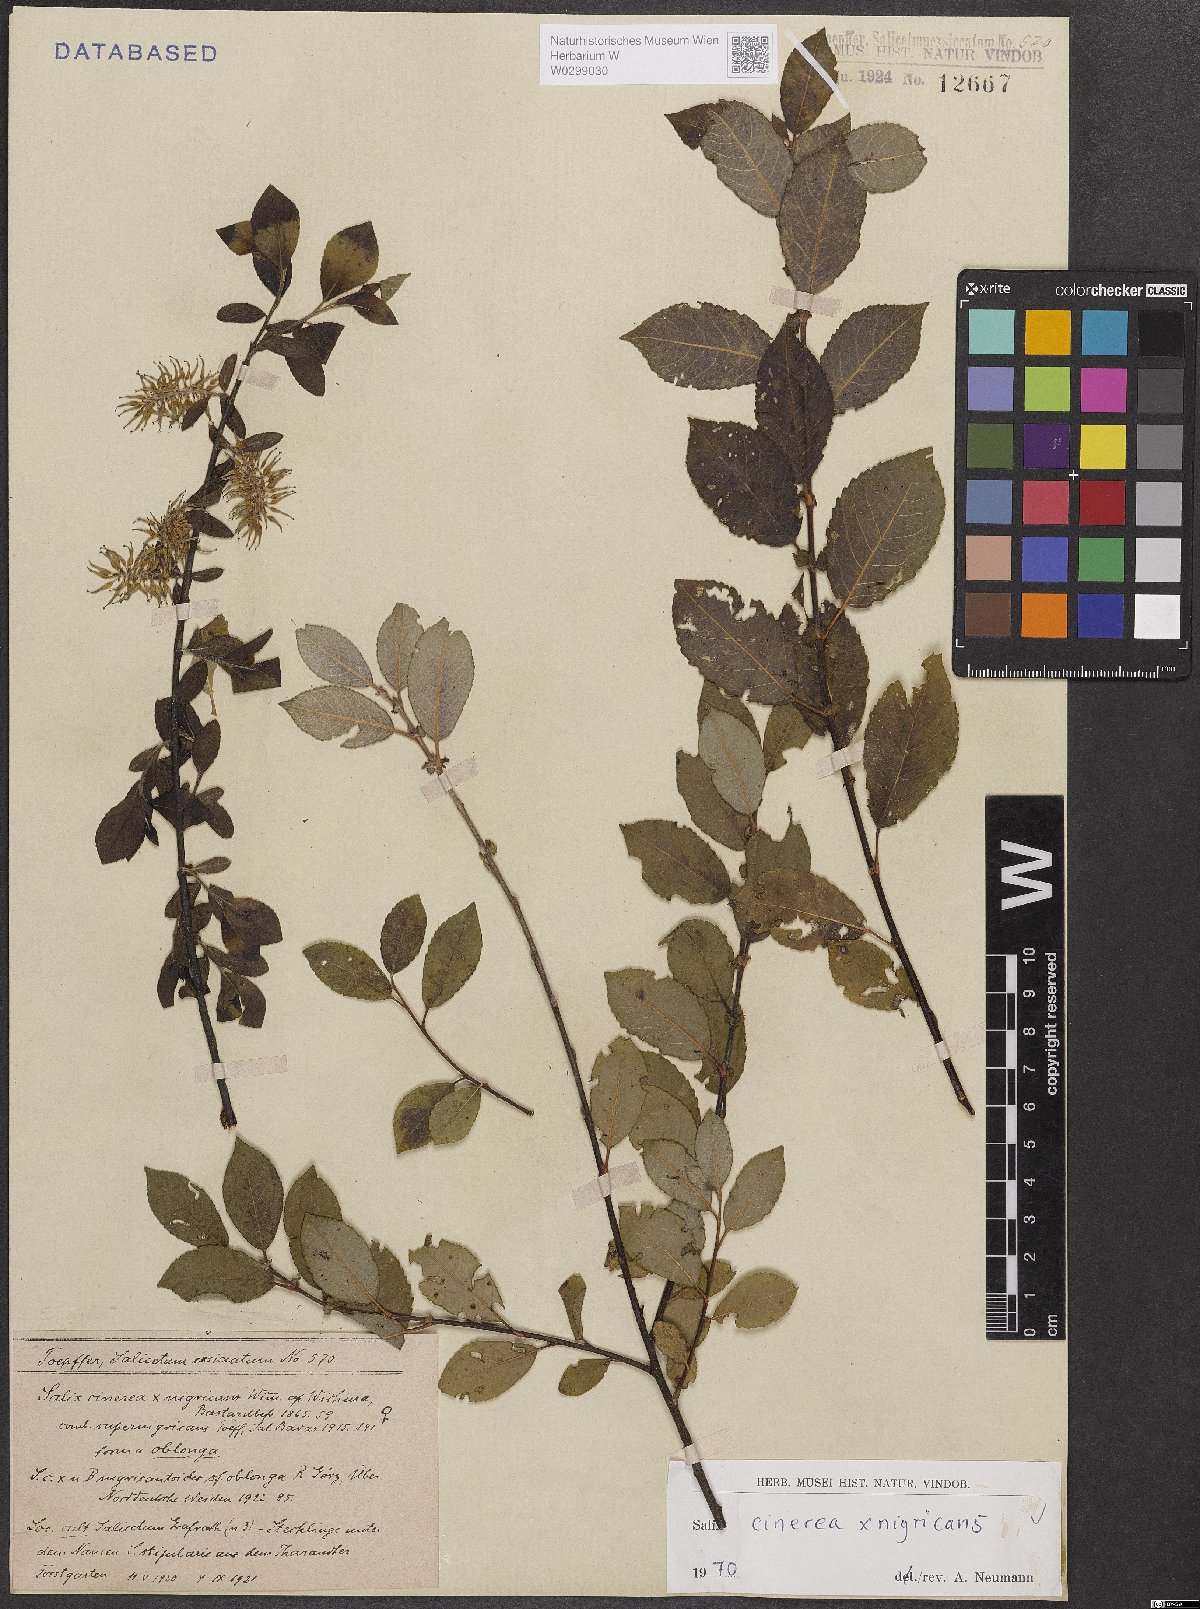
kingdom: Plantae
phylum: Tracheophyta
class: Magnoliopsida
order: Malpighiales
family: Salicaceae
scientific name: Salicaceae
